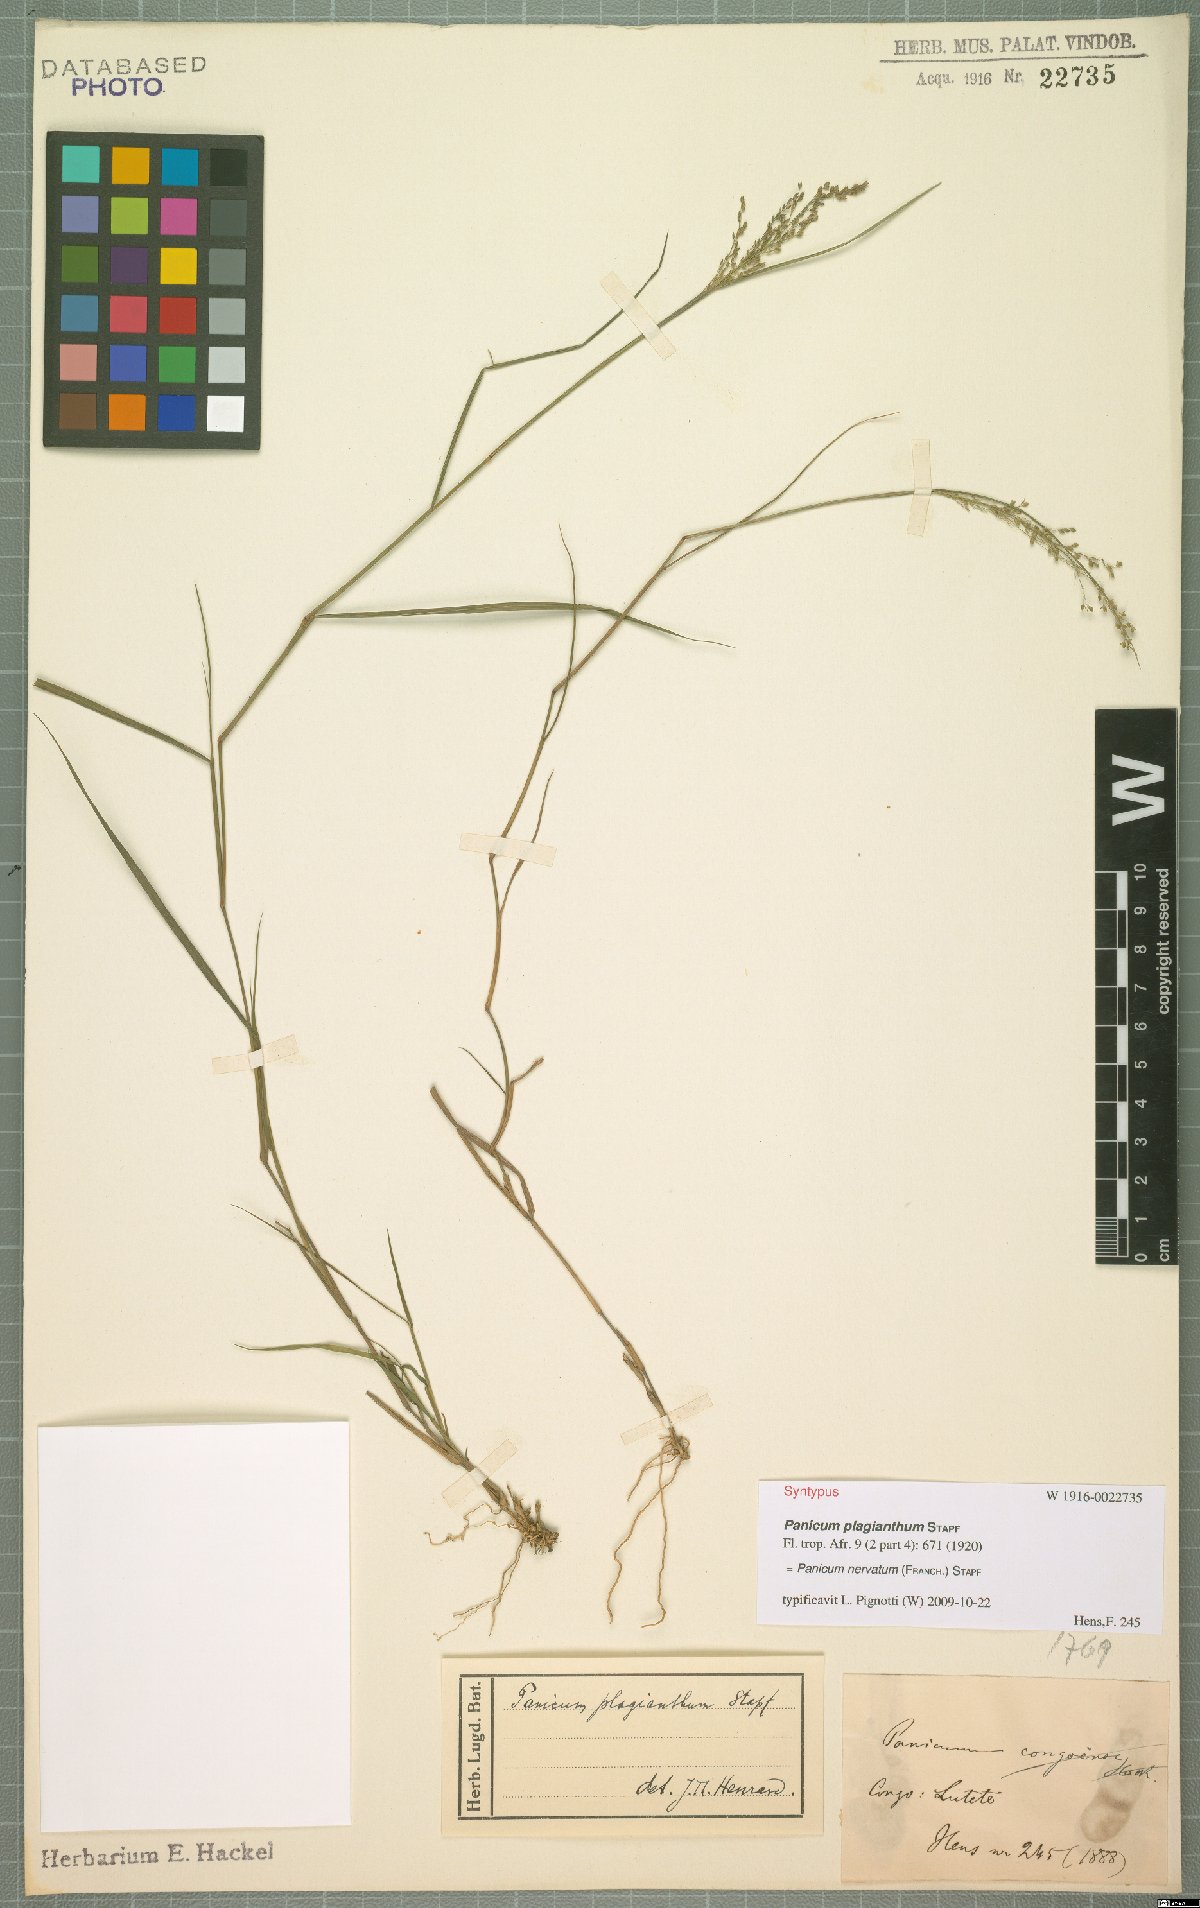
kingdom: Plantae
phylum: Tracheophyta
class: Liliopsida
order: Poales
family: Poaceae
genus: Trichanthecium
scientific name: Trichanthecium nervatum
